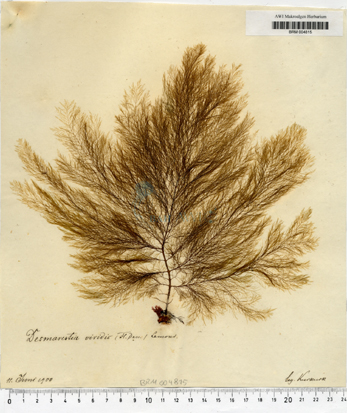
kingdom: Chromista
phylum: Ochrophyta
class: Phaeophyceae
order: Desmarestiales
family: Desmarestiaceae
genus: Desmarestia
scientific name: Desmarestia viridis
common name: Stringy acid kelp
